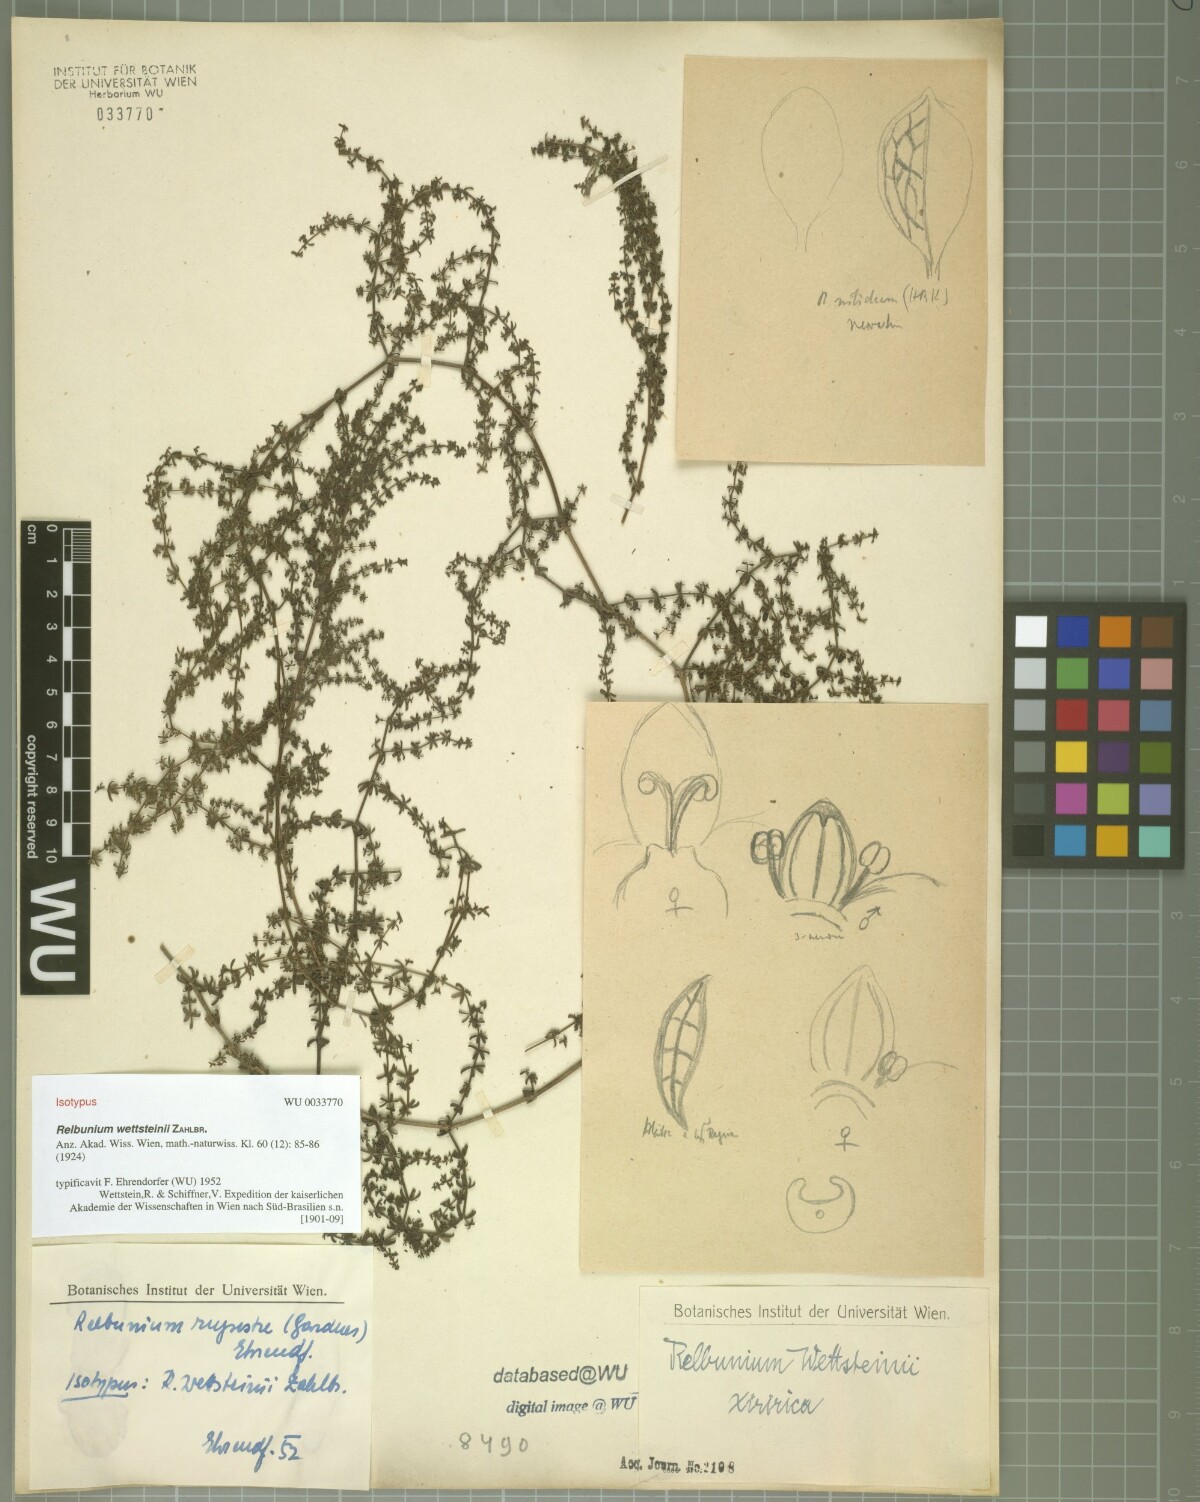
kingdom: Plantae
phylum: Tracheophyta
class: Magnoliopsida
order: Gentianales
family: Rubiaceae
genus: Galium
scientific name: Galium hypocarpium
